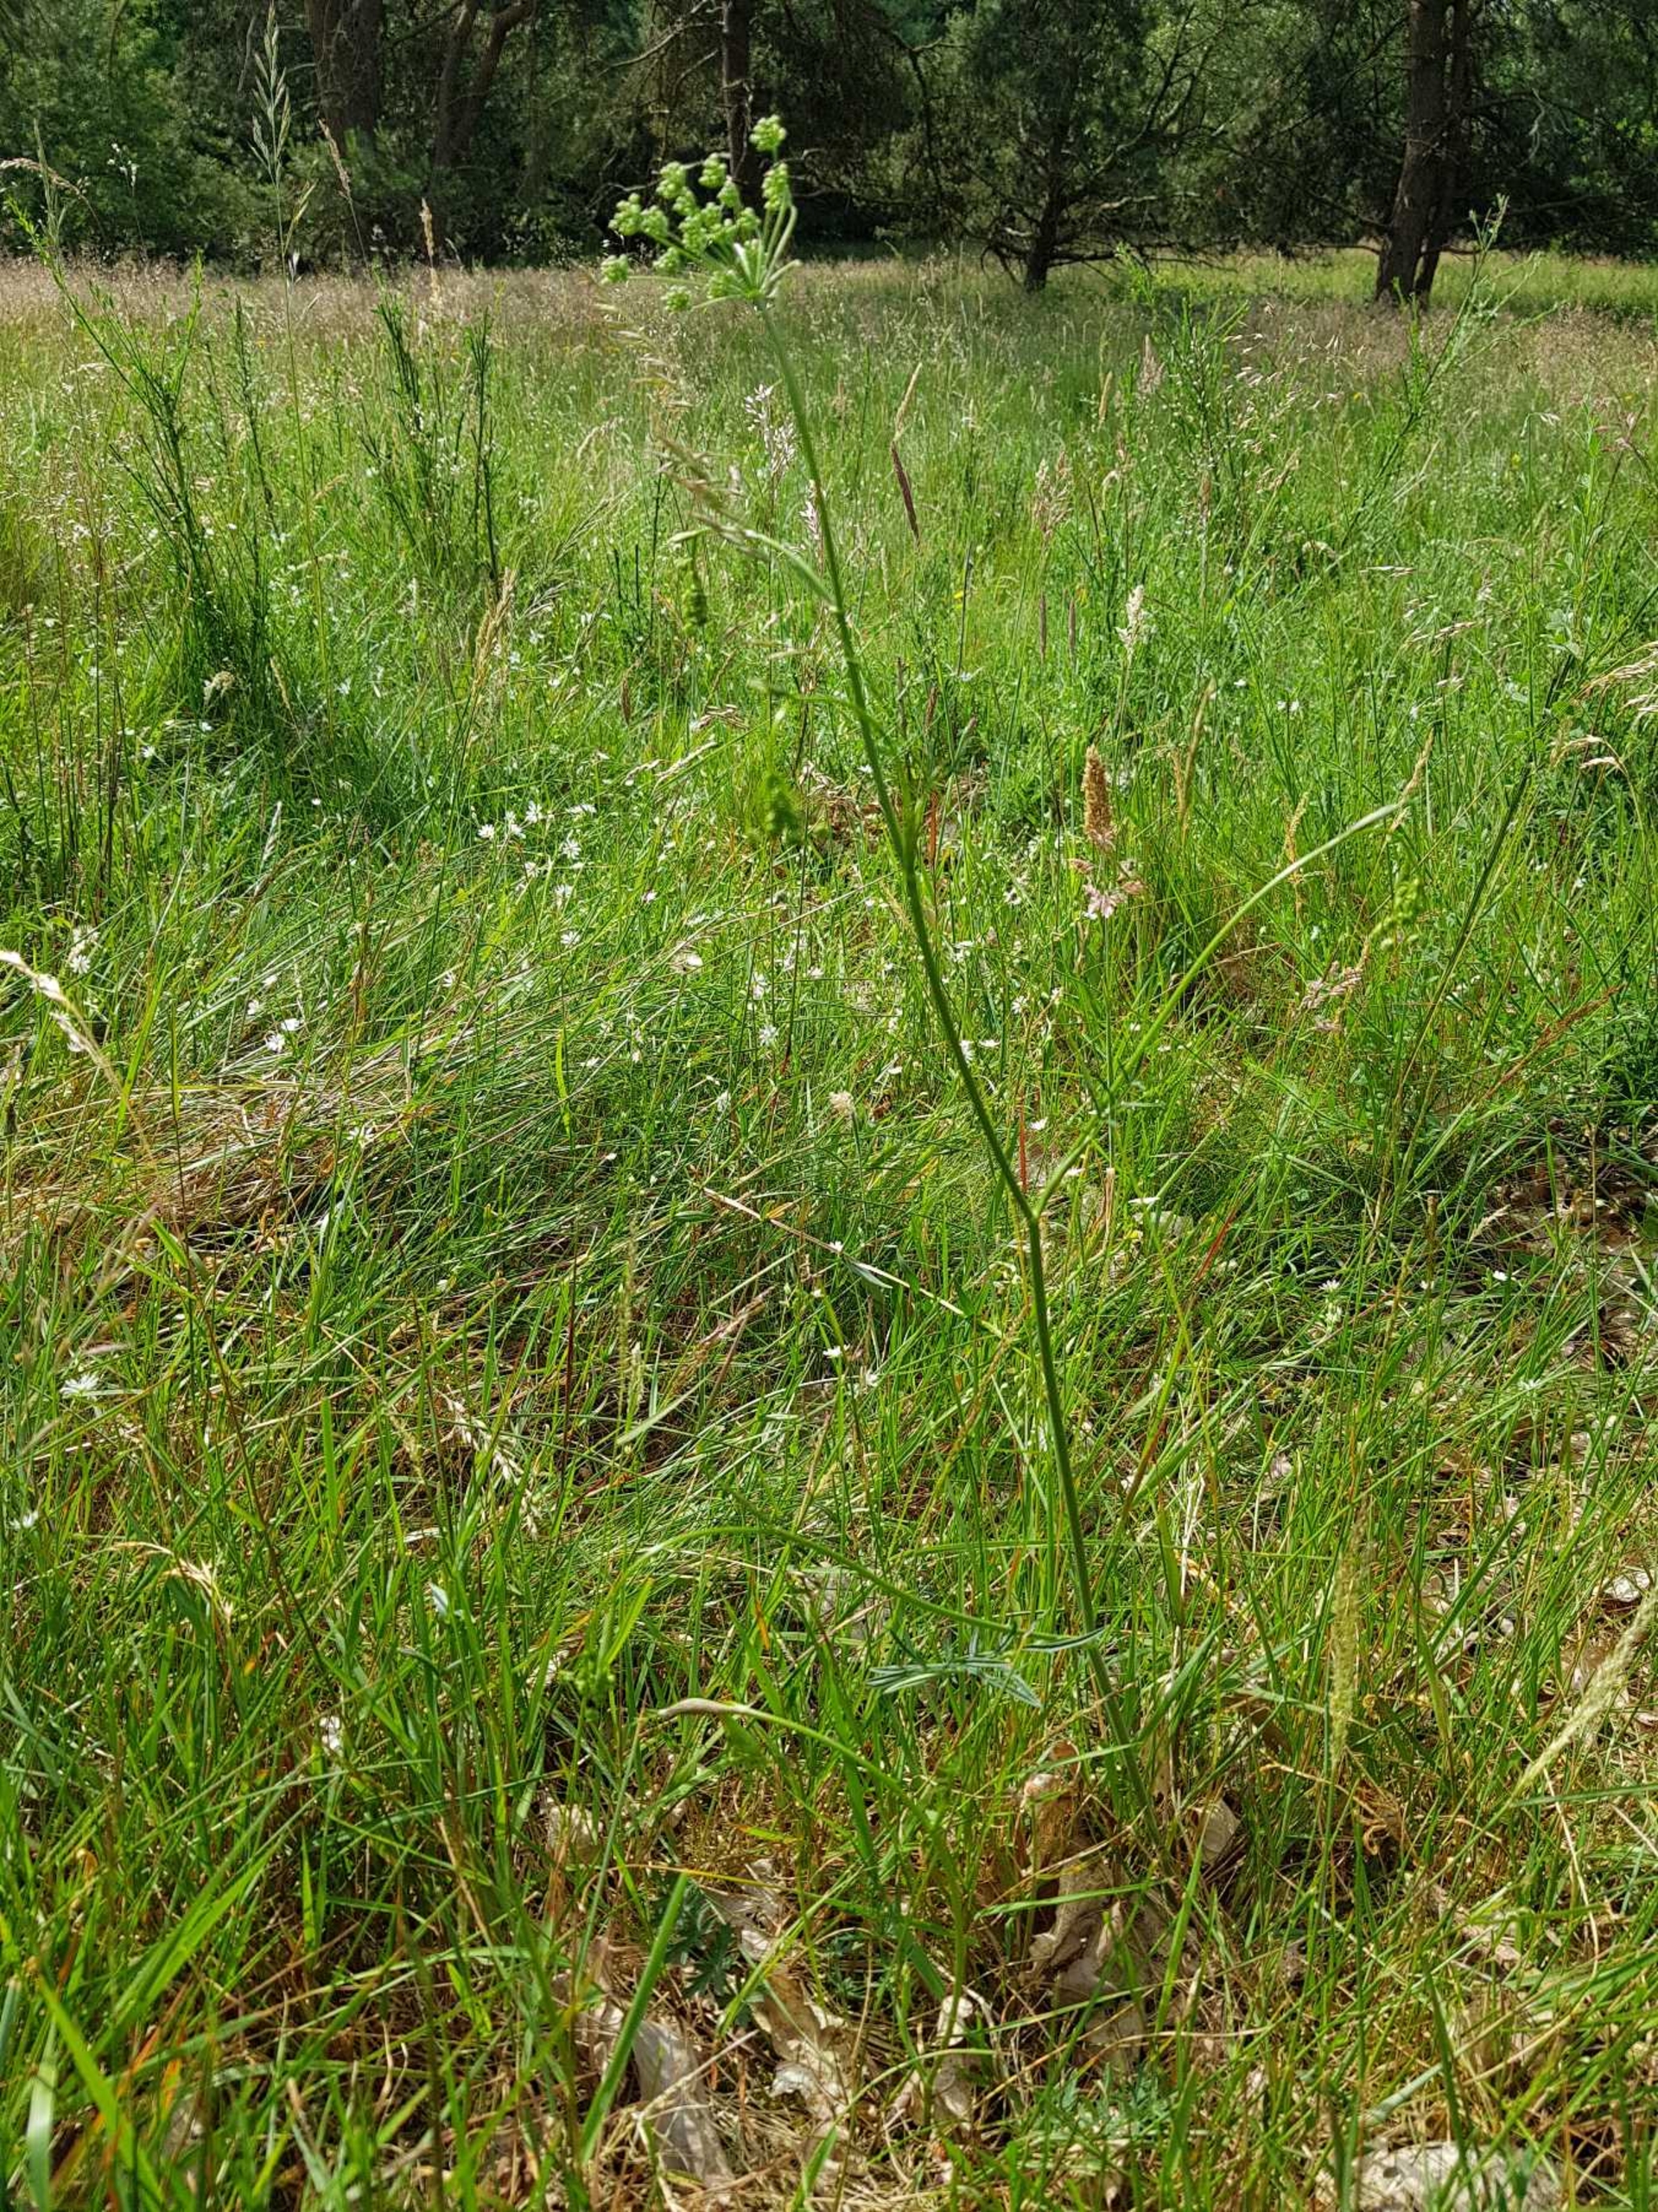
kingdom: Plantae
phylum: Tracheophyta
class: Magnoliopsida
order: Apiales
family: Apiaceae
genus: Pimpinella
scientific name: Pimpinella saxifraga
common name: Almindelig pimpinelle (underart)
